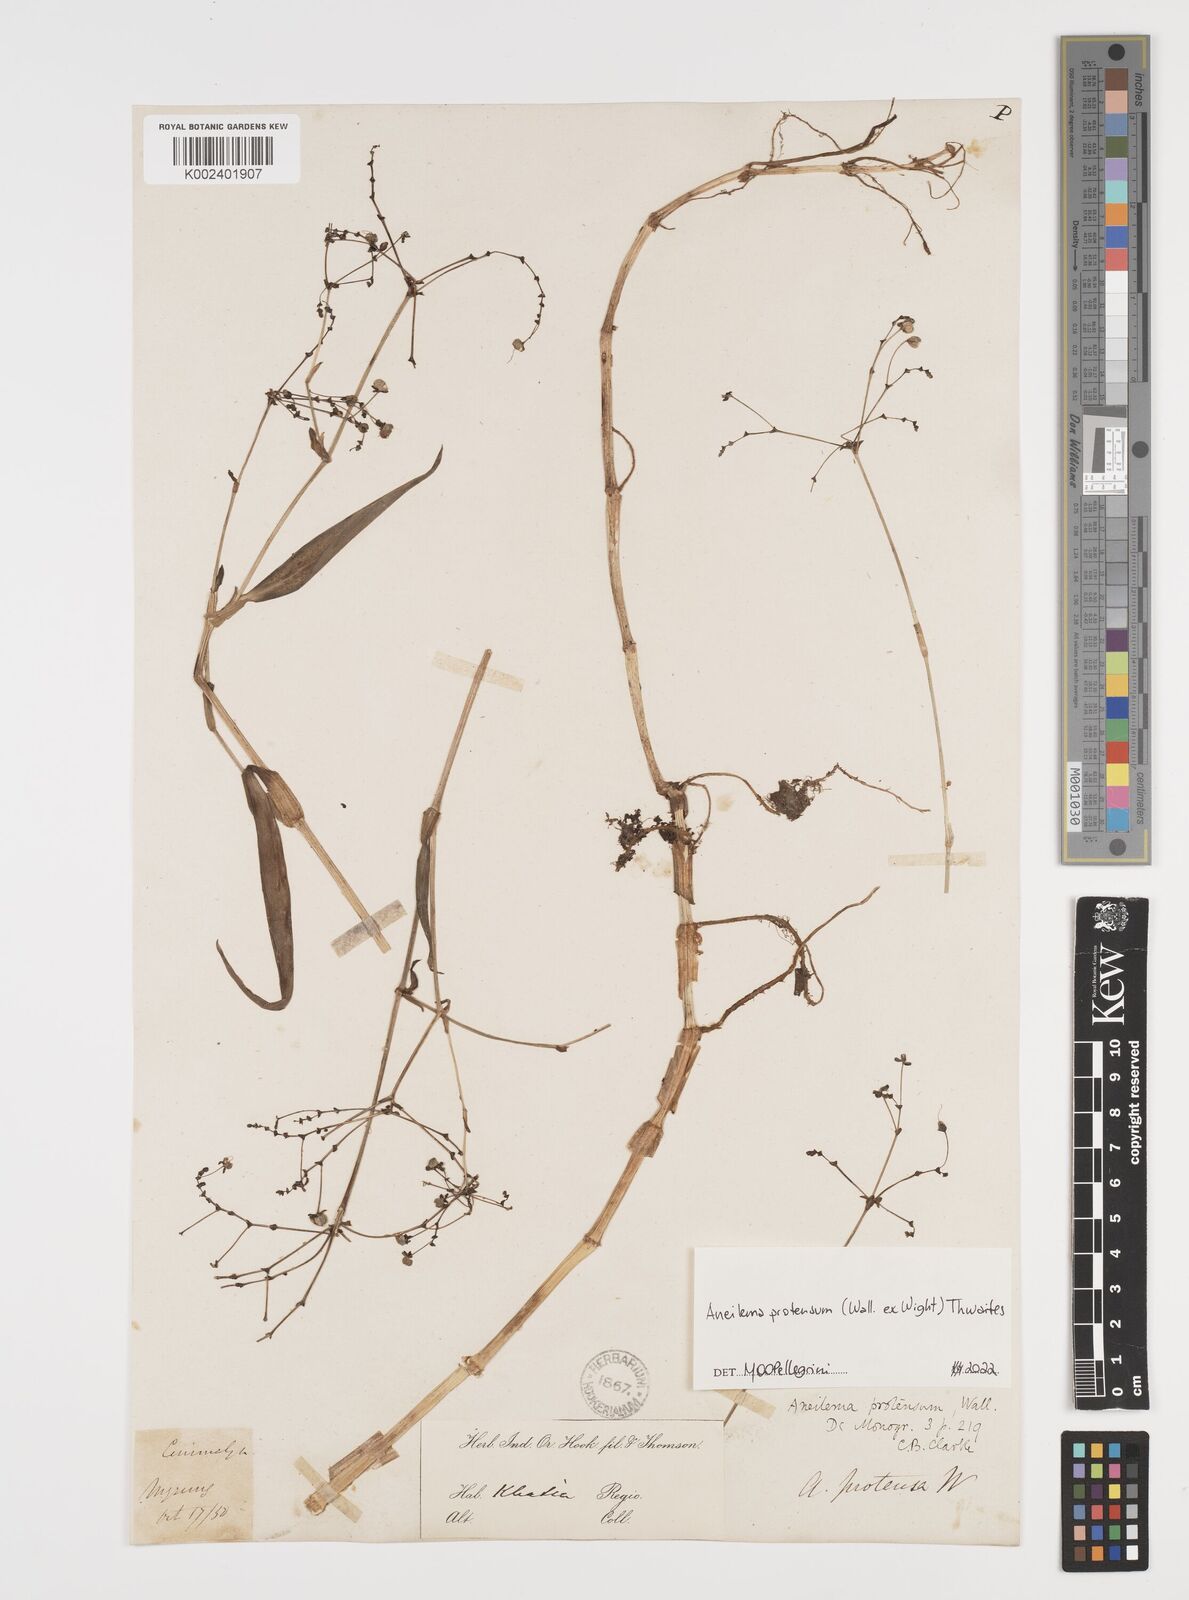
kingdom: Plantae
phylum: Tracheophyta
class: Liliopsida
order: Commelinales
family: Commelinaceae
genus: Rhopalephora
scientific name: Rhopalephora
